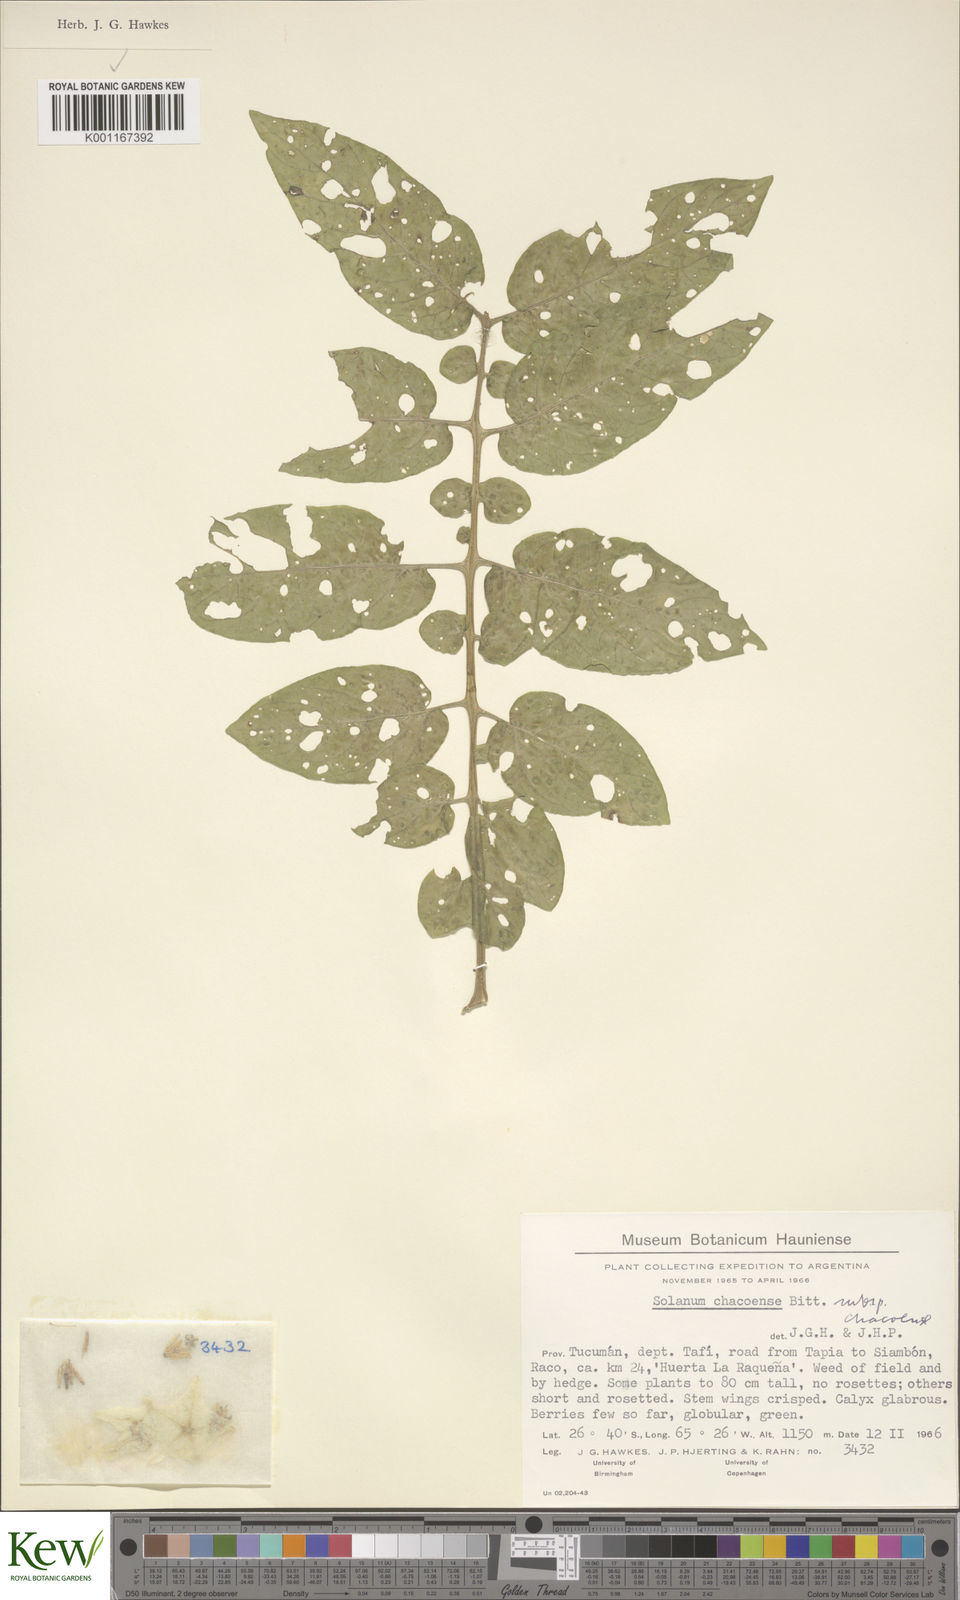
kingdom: Plantae
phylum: Tracheophyta
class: Magnoliopsida
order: Solanales
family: Solanaceae
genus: Solanum
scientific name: Solanum chacoense
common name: Chaco potato
